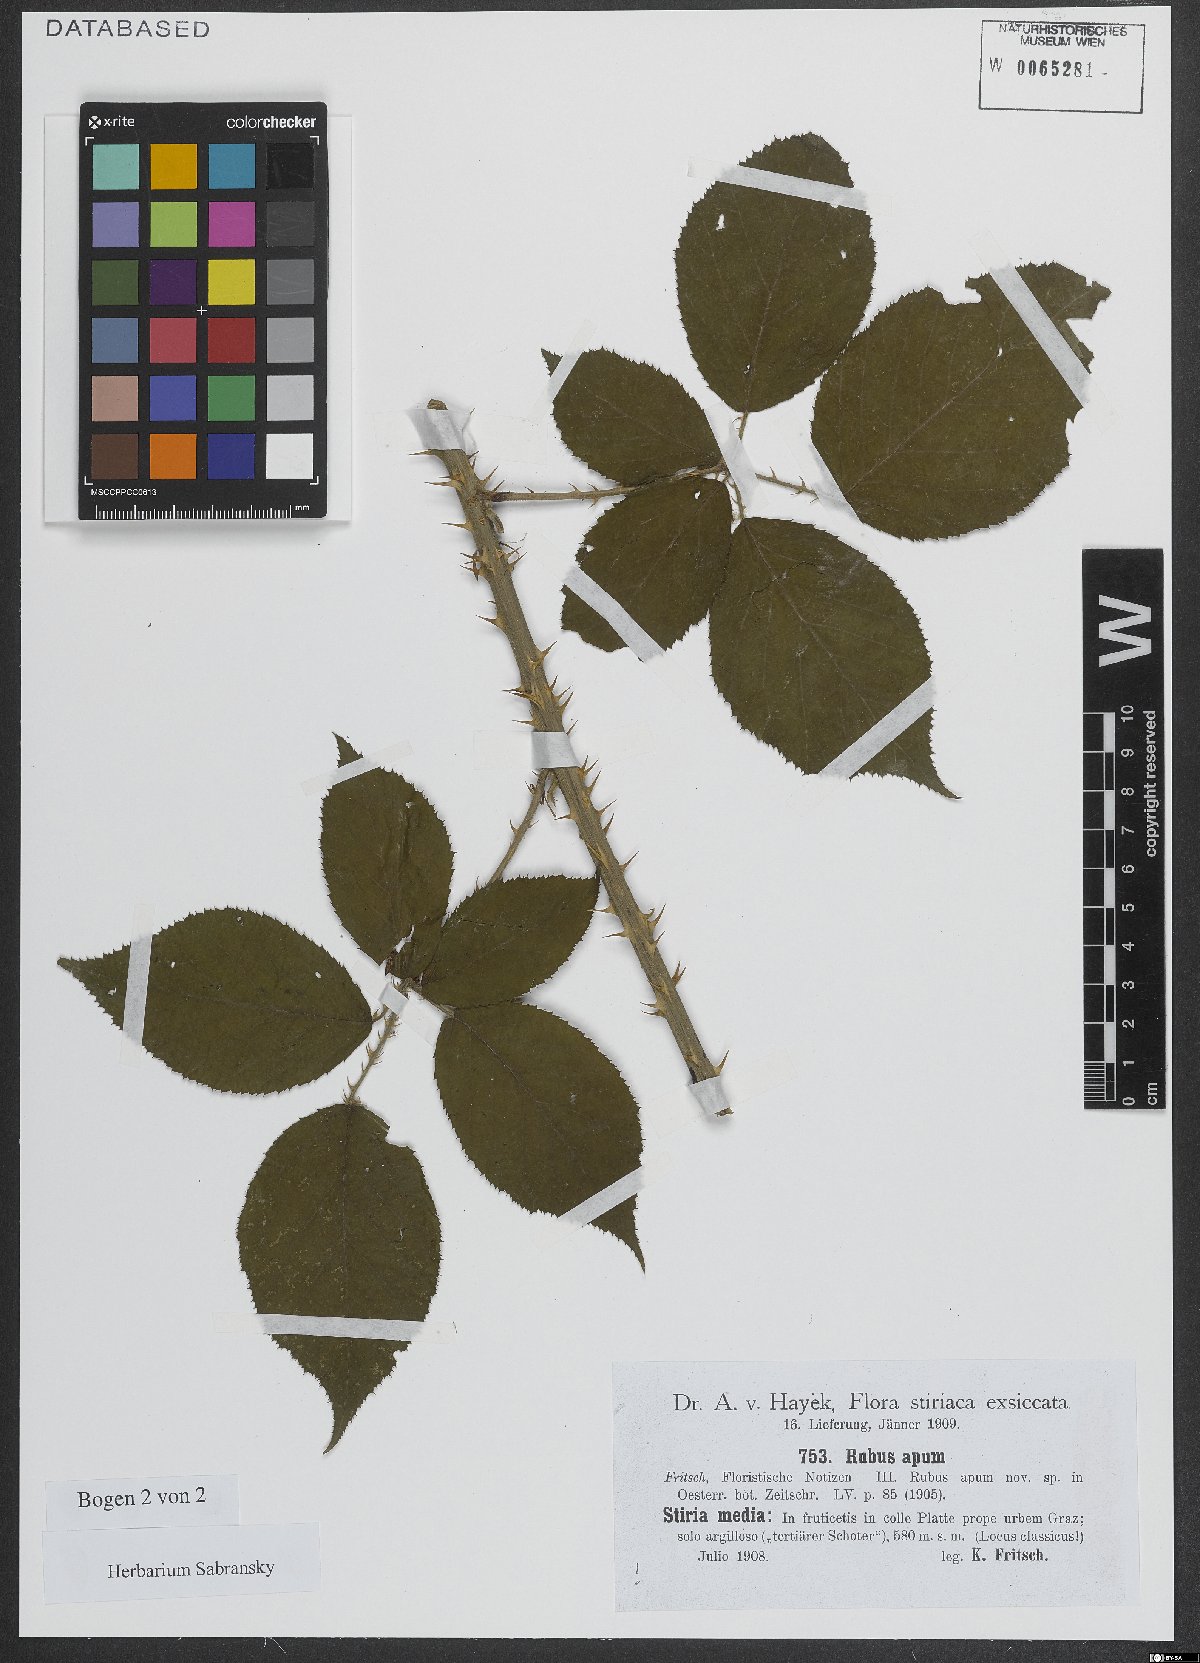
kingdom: Plantae
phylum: Tracheophyta
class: Magnoliopsida
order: Rosales
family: Rosaceae
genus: Rubus
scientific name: Rubus ferox
